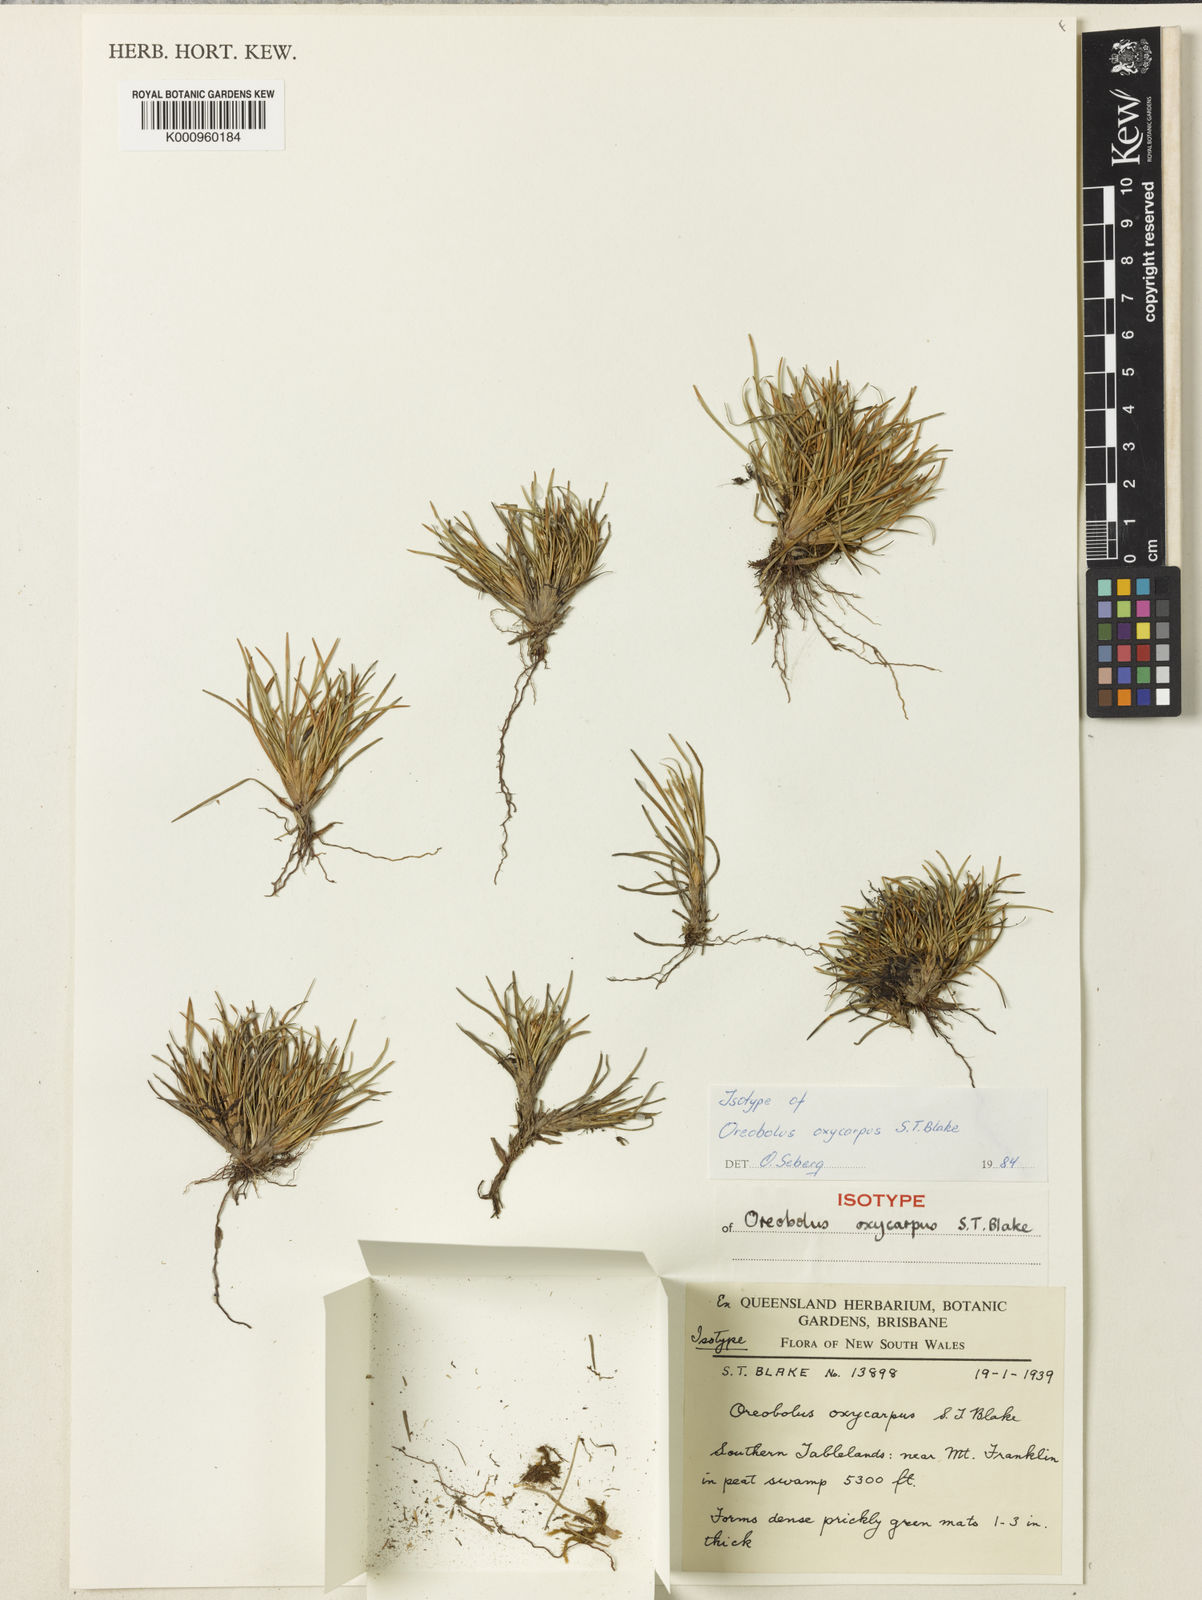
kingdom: Plantae
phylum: Tracheophyta
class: Liliopsida
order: Poales
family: Cyperaceae
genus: Oreobolus
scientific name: Oreobolus oxycarpus
